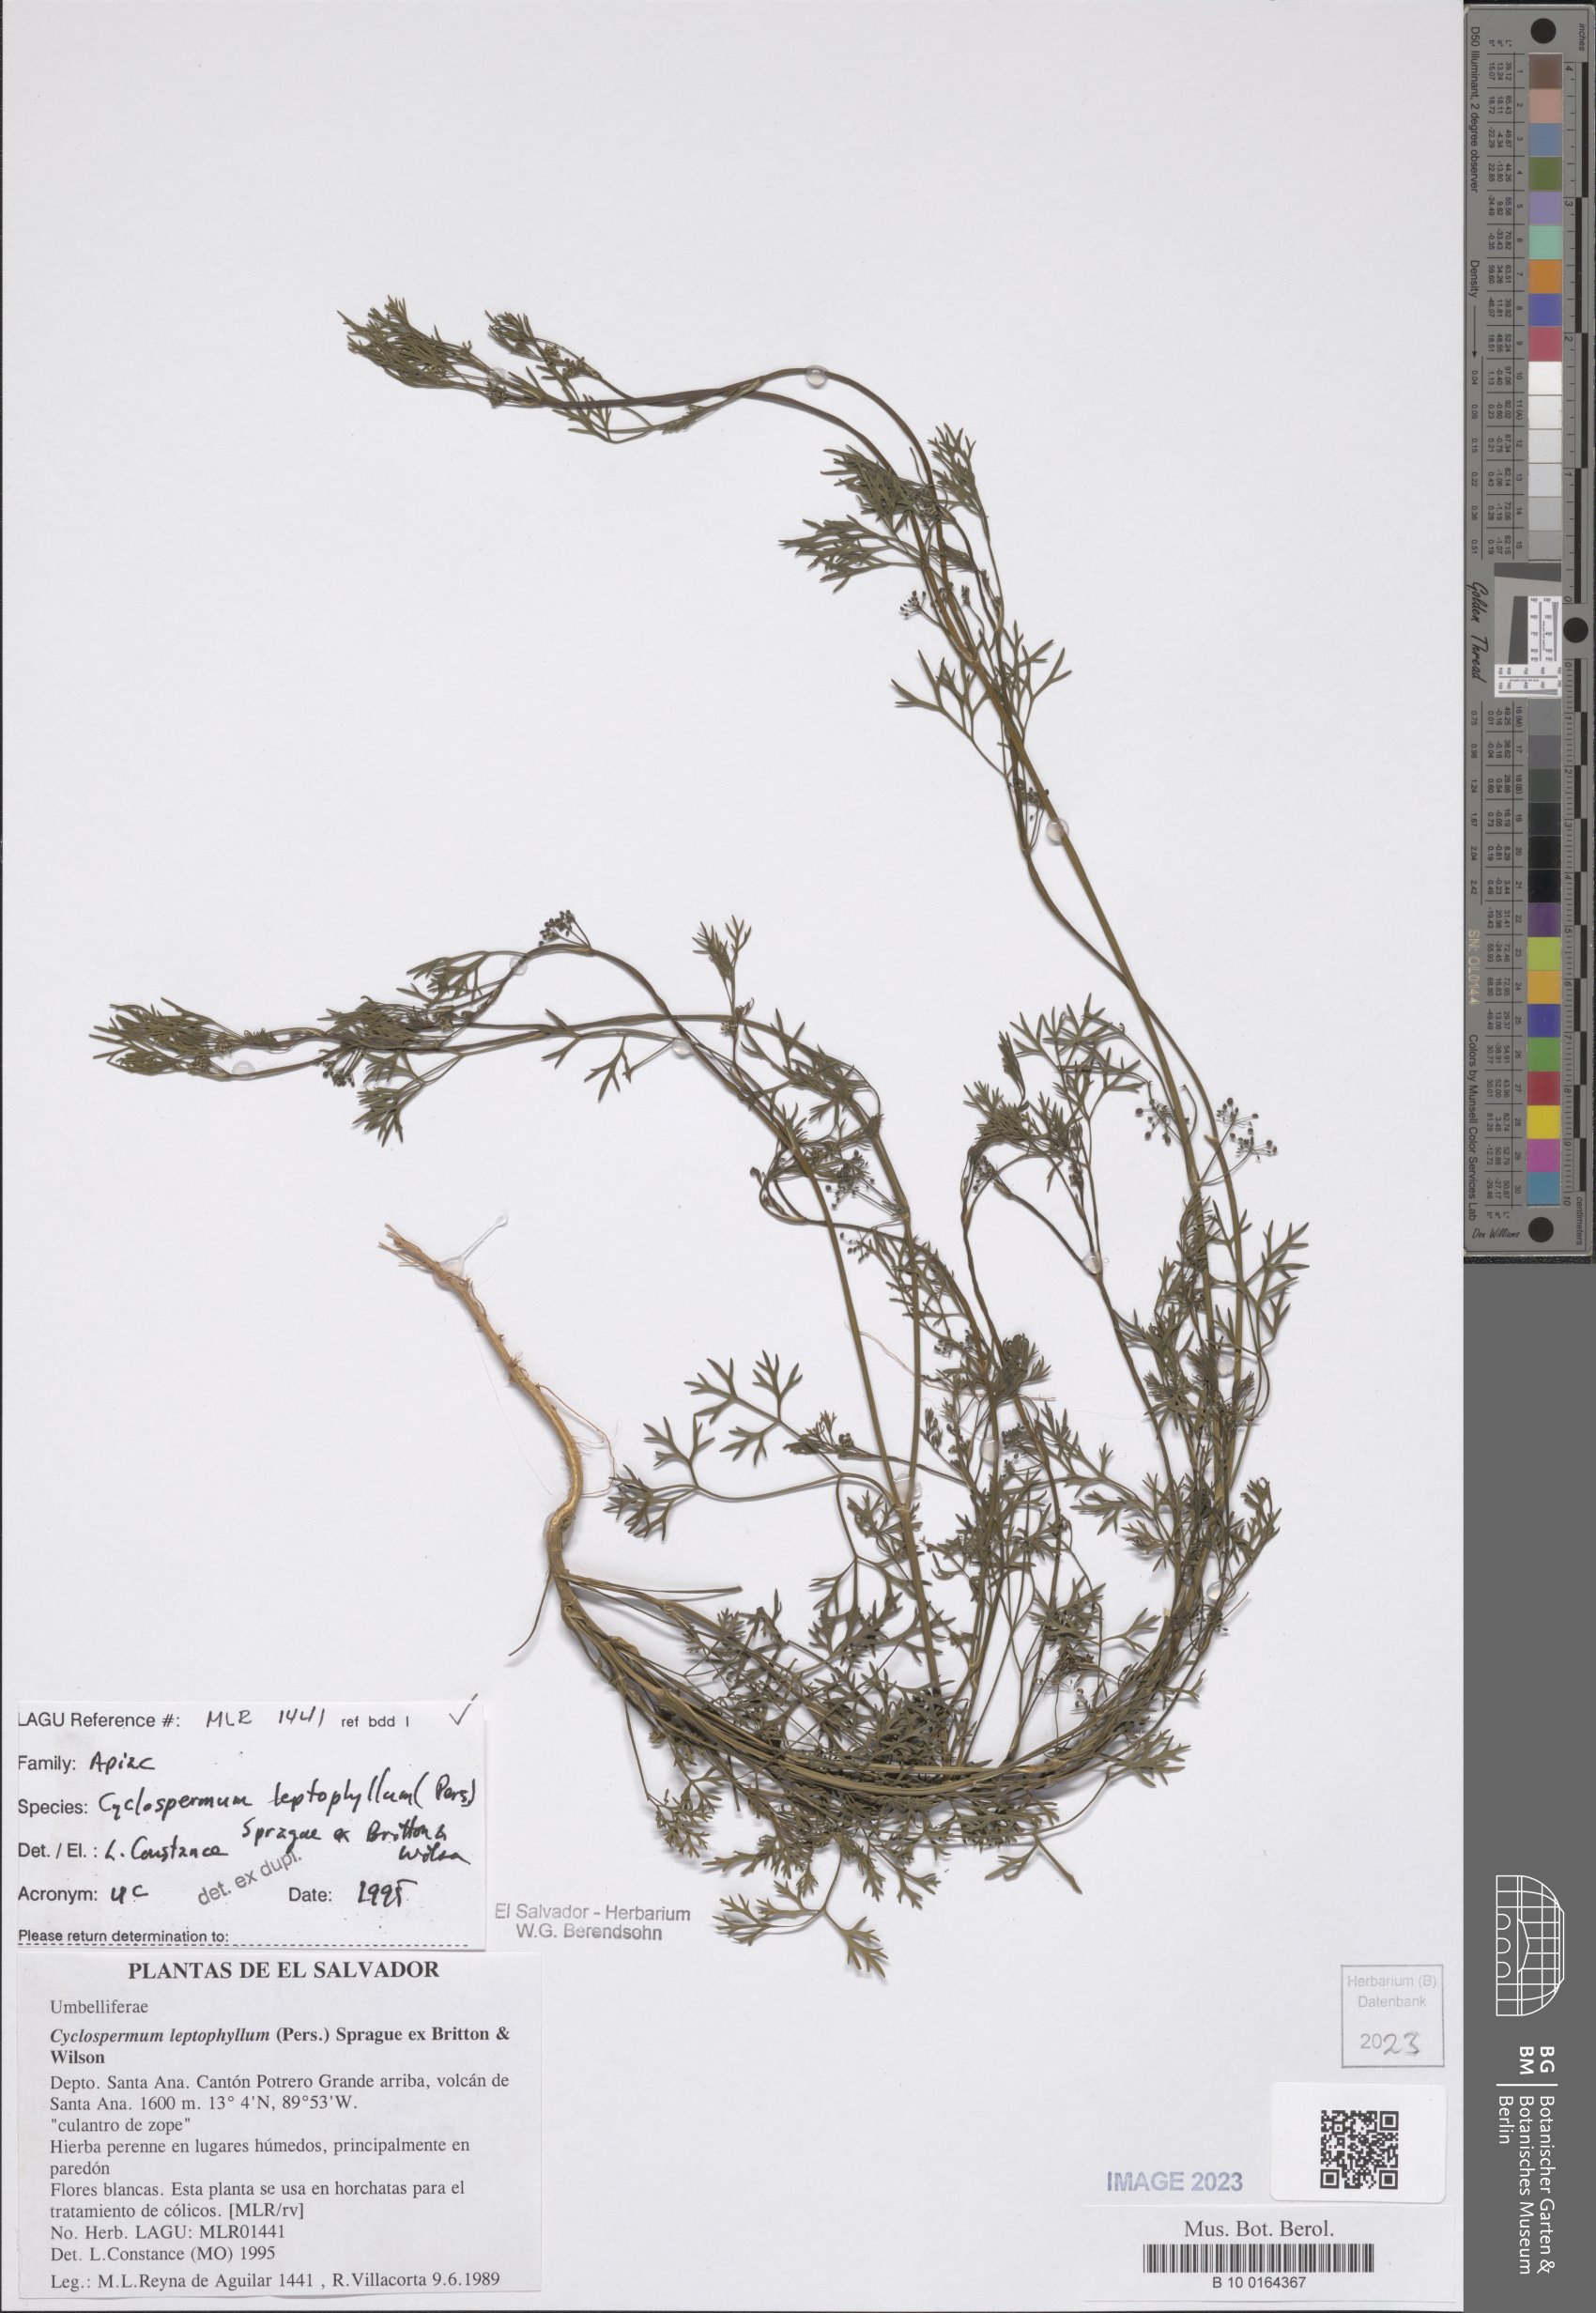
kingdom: Plantae
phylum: Tracheophyta
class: Magnoliopsida
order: Apiales
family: Apiaceae
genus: Cyclospermum
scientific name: Cyclospermum leptophyllum
